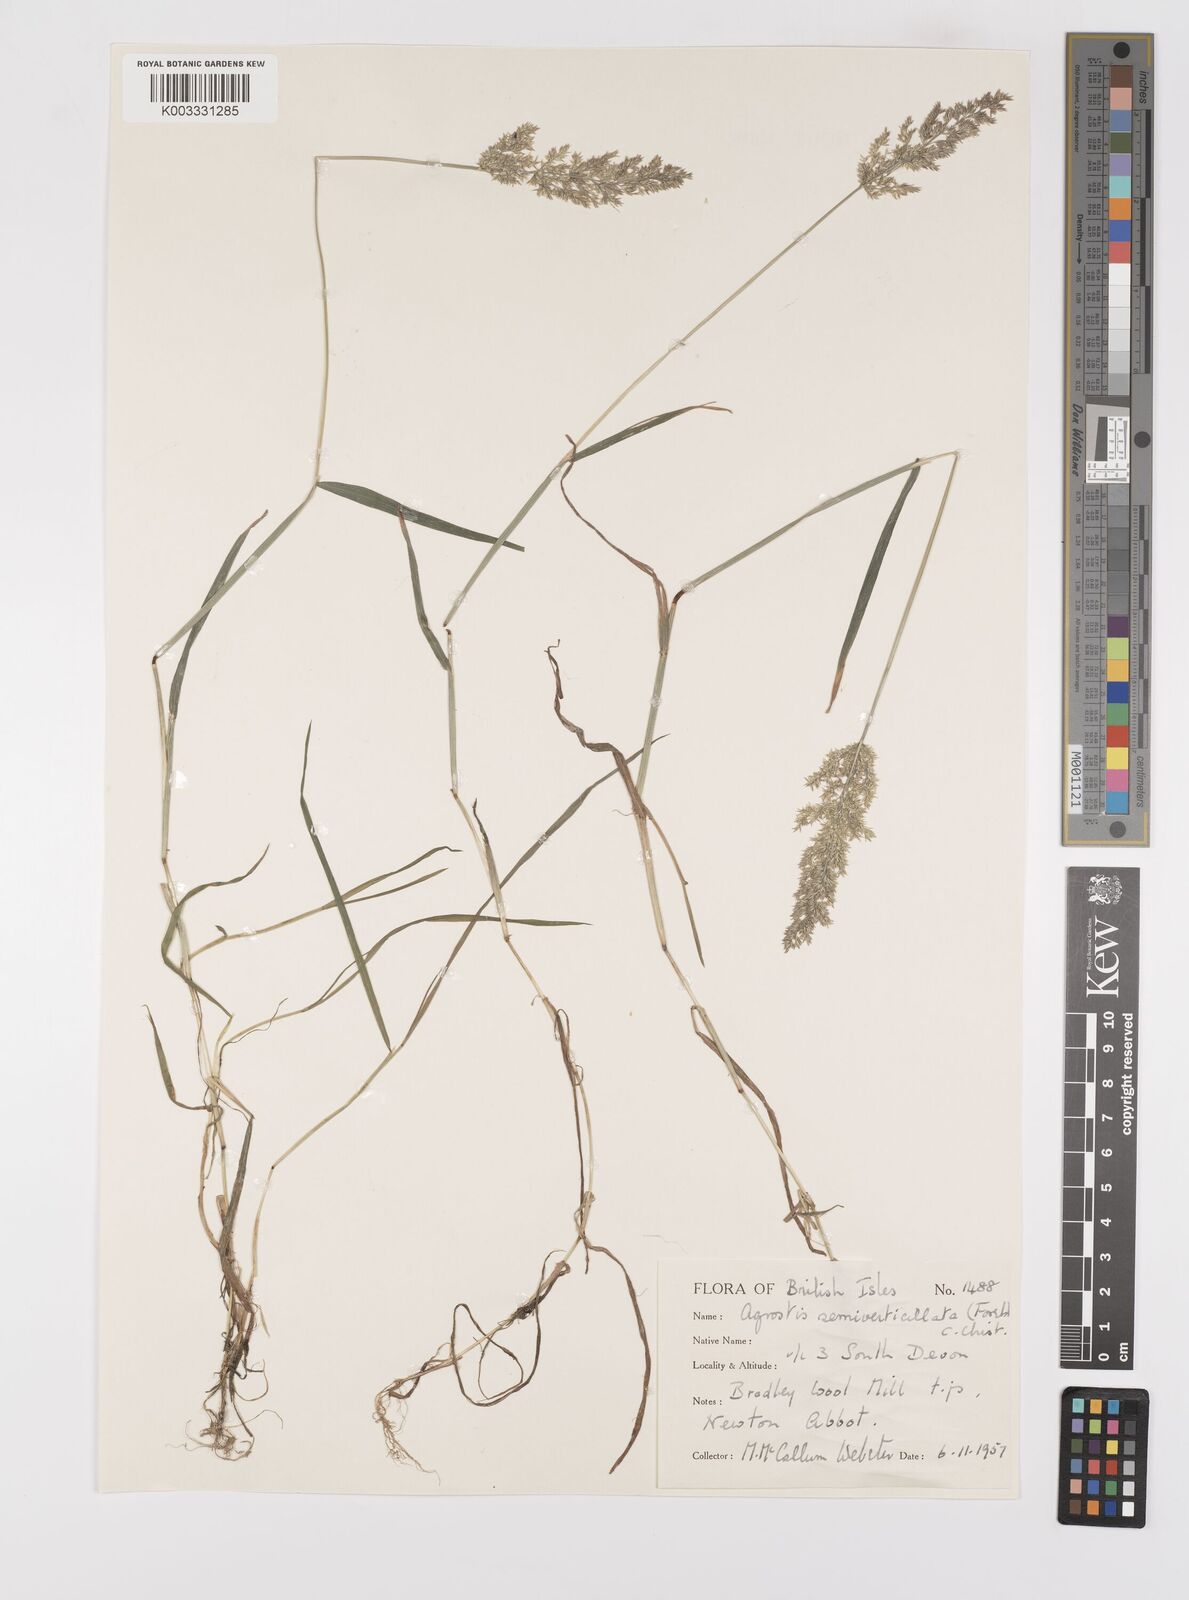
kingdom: Plantae
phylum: Tracheophyta
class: Liliopsida
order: Poales
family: Poaceae
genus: Polypogon
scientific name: Polypogon viridis
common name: Water bent
